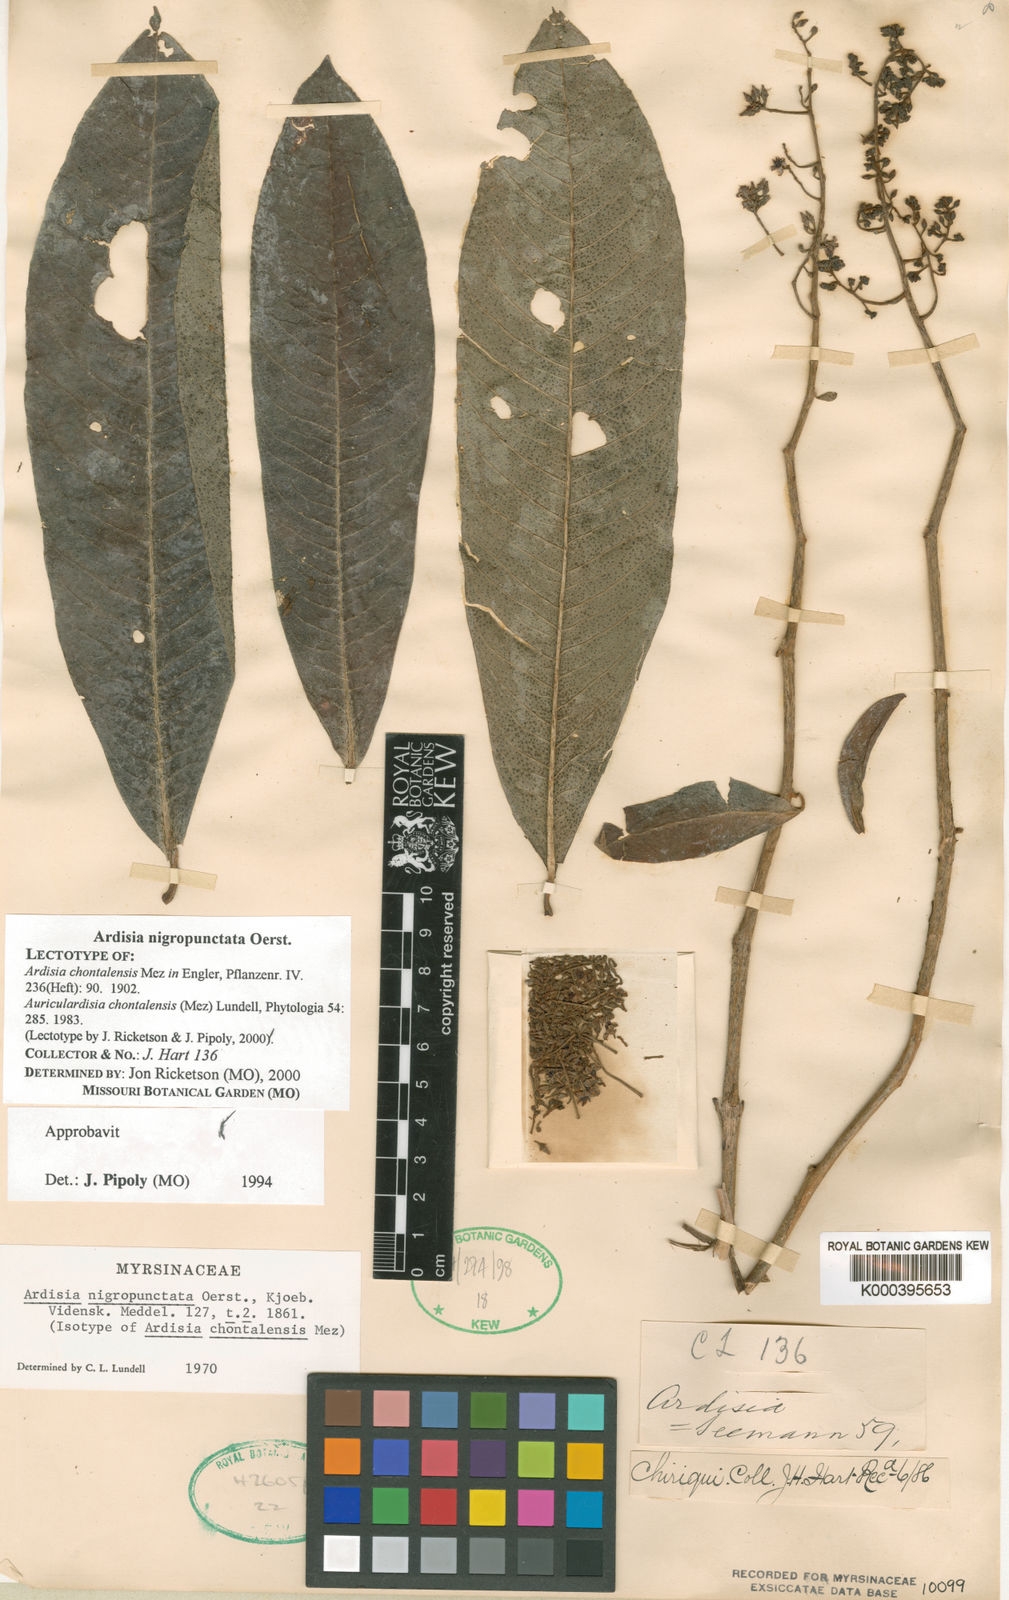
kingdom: Plantae
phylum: Tracheophyta
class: Magnoliopsida
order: Ericales
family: Primulaceae
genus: Ardisia
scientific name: Ardisia nigropunctata
